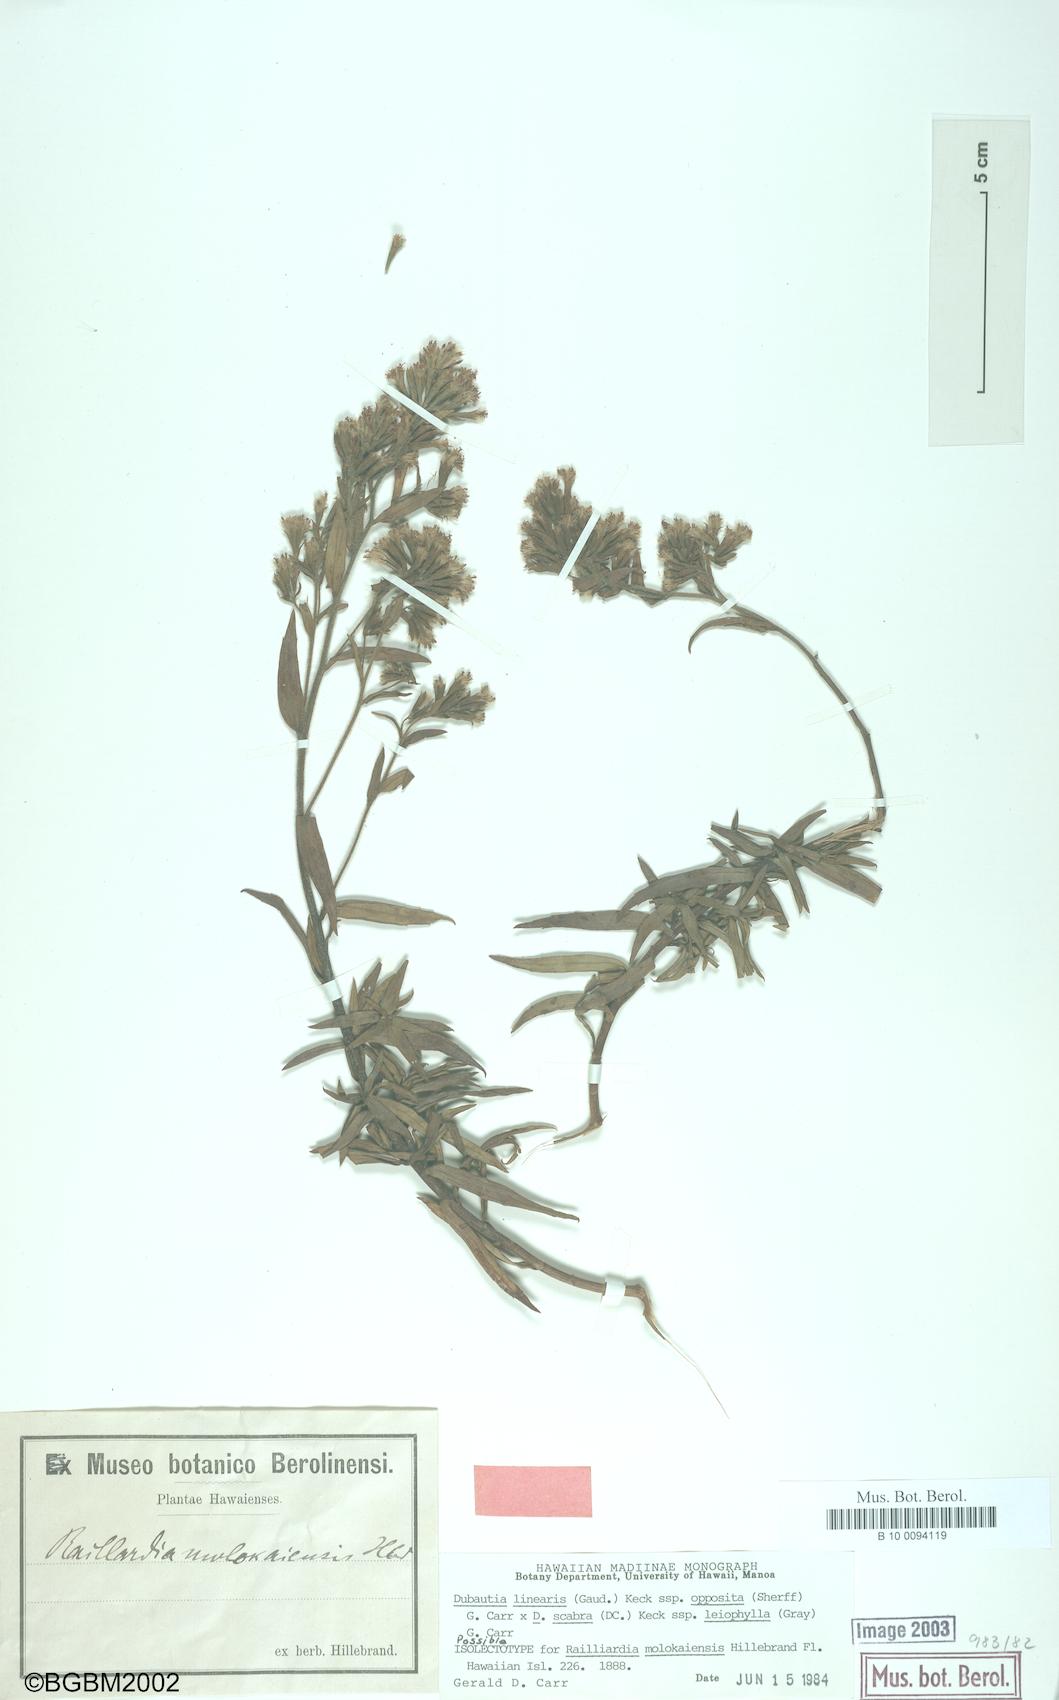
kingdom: Plantae
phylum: Tracheophyta
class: Magnoliopsida
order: Asterales
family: Asteraceae
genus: Dubautia
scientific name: Dubautia carrii
